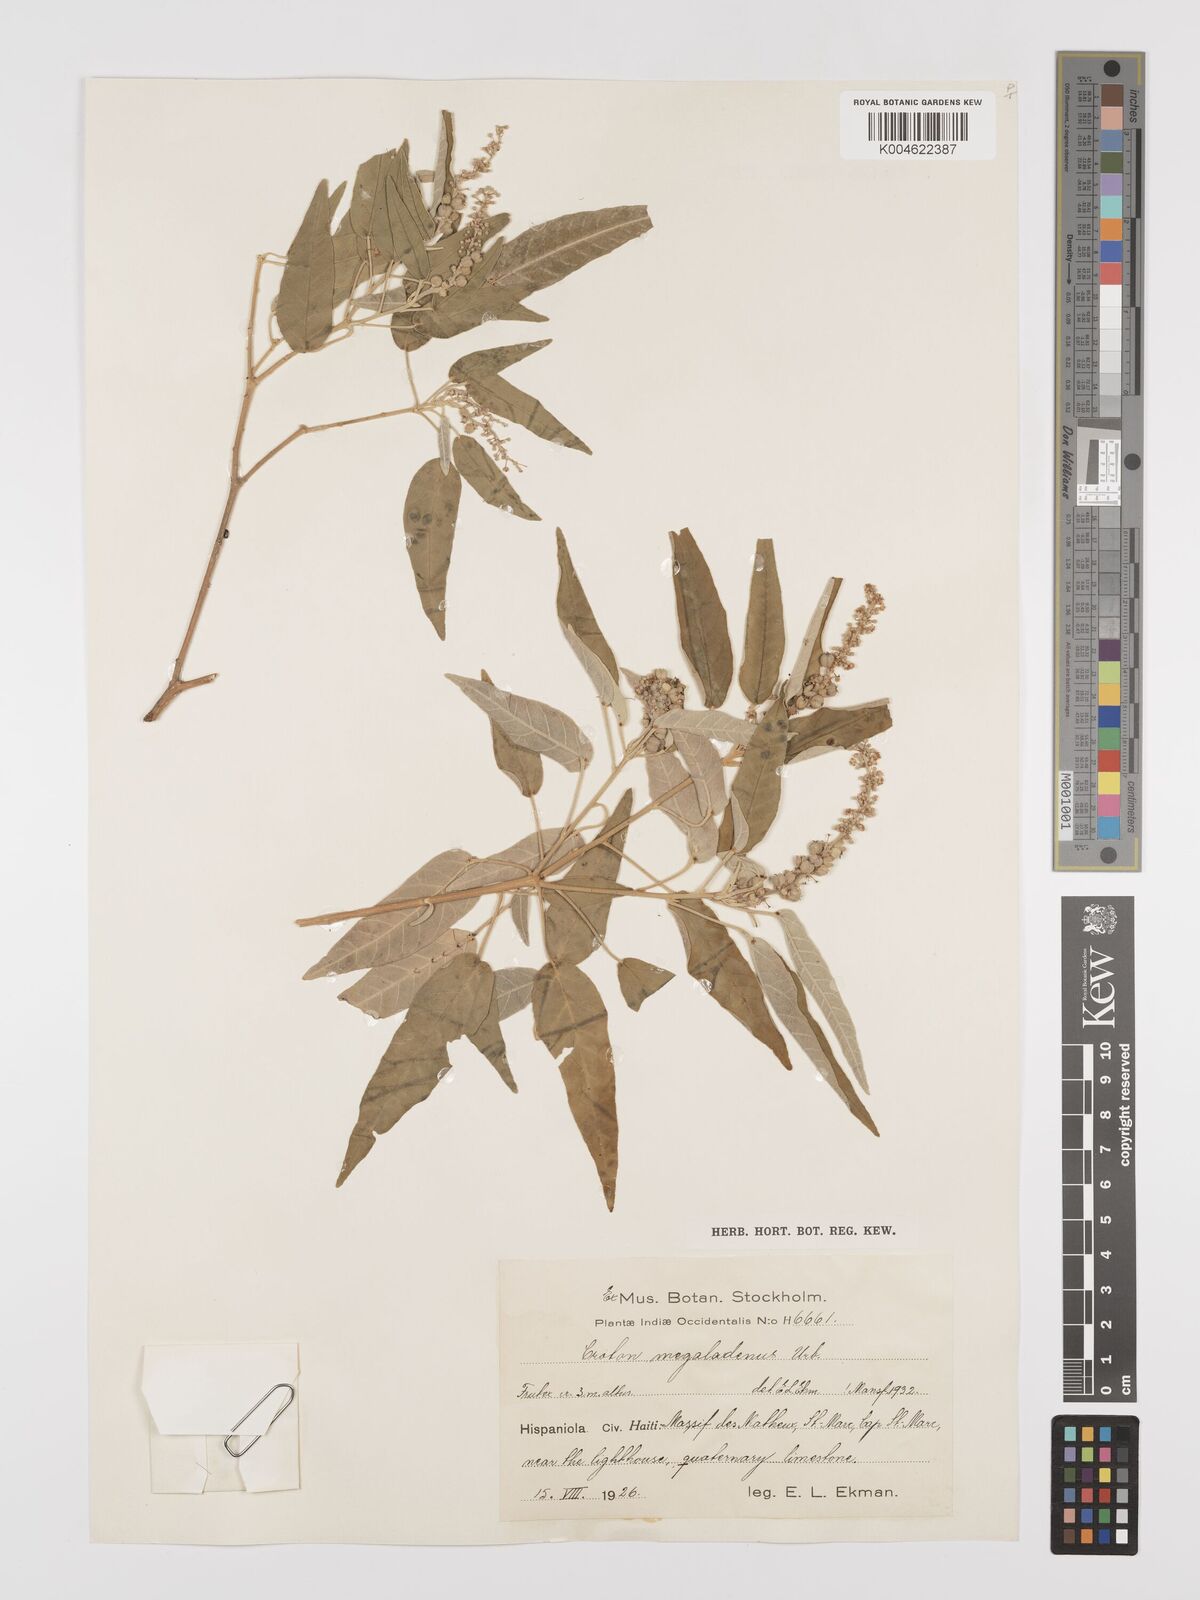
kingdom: Plantae
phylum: Tracheophyta
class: Magnoliopsida
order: Malpighiales
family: Euphorbiaceae
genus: Croton
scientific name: Croton megaladenus
